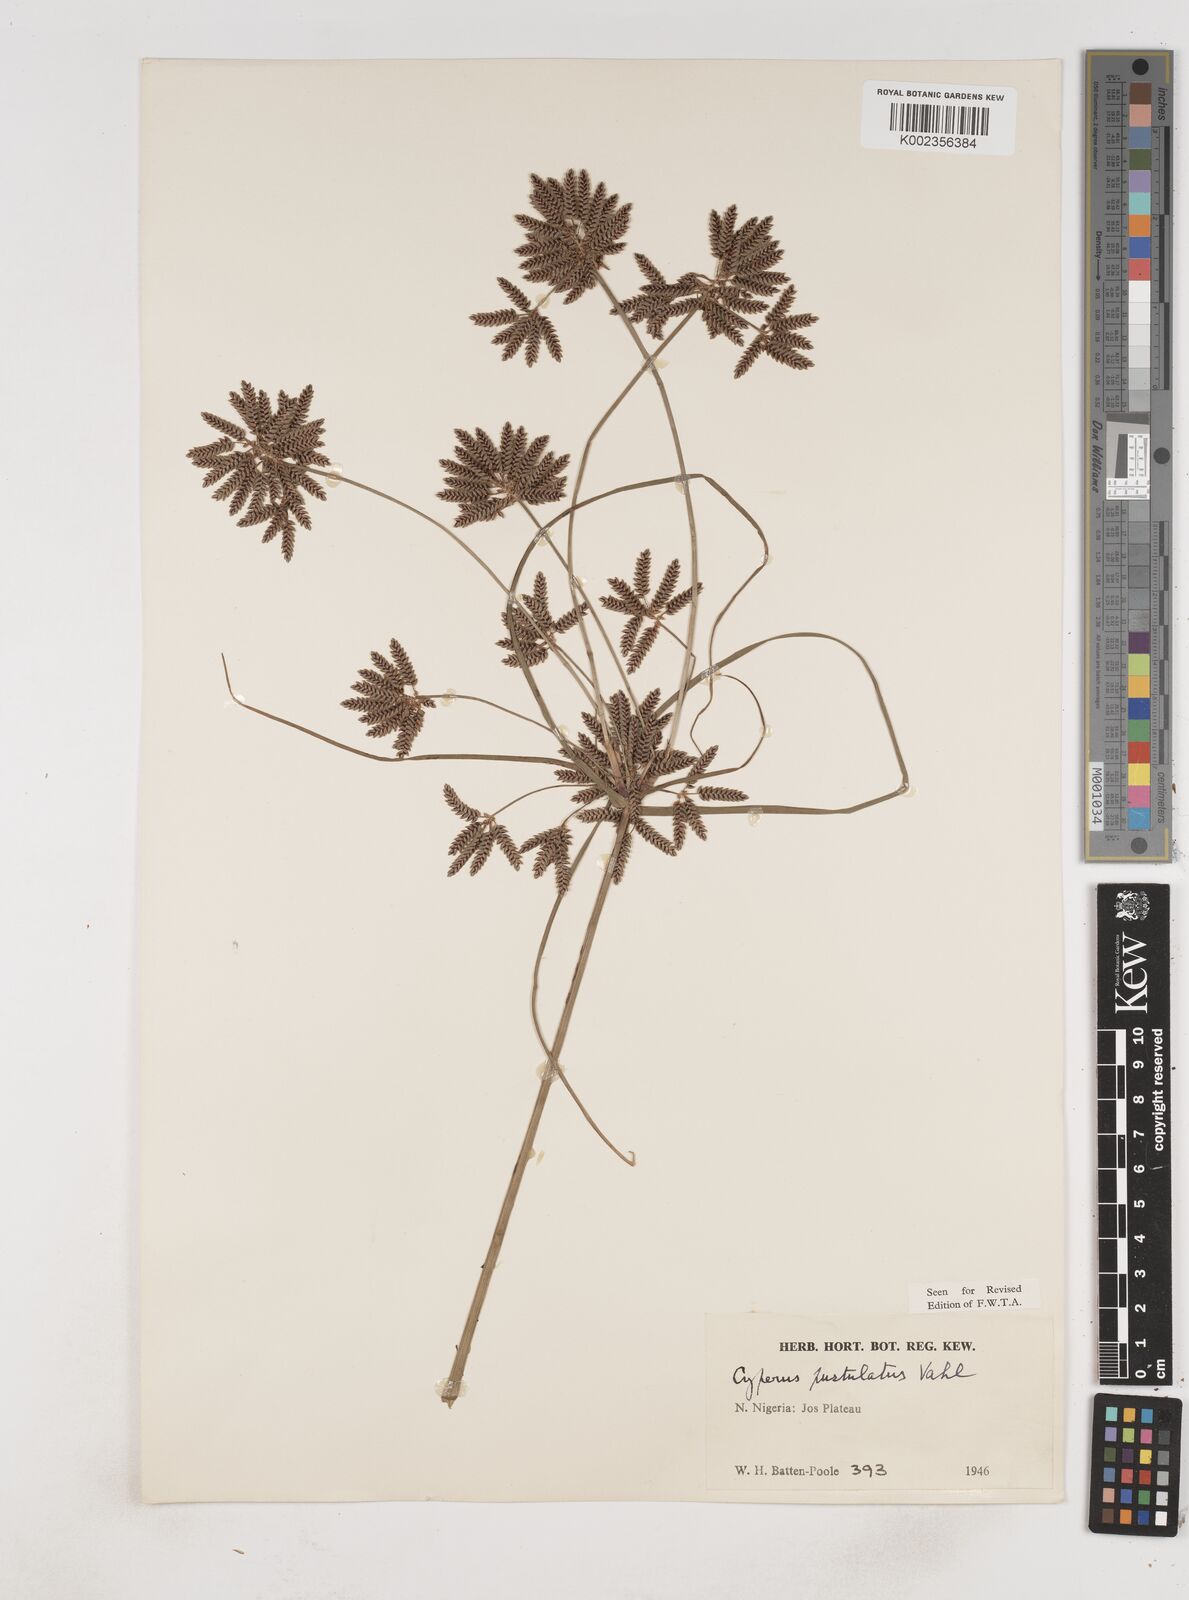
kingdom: Plantae
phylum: Tracheophyta
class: Liliopsida
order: Poales
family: Cyperaceae
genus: Cyperus
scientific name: Cyperus pustulatus
